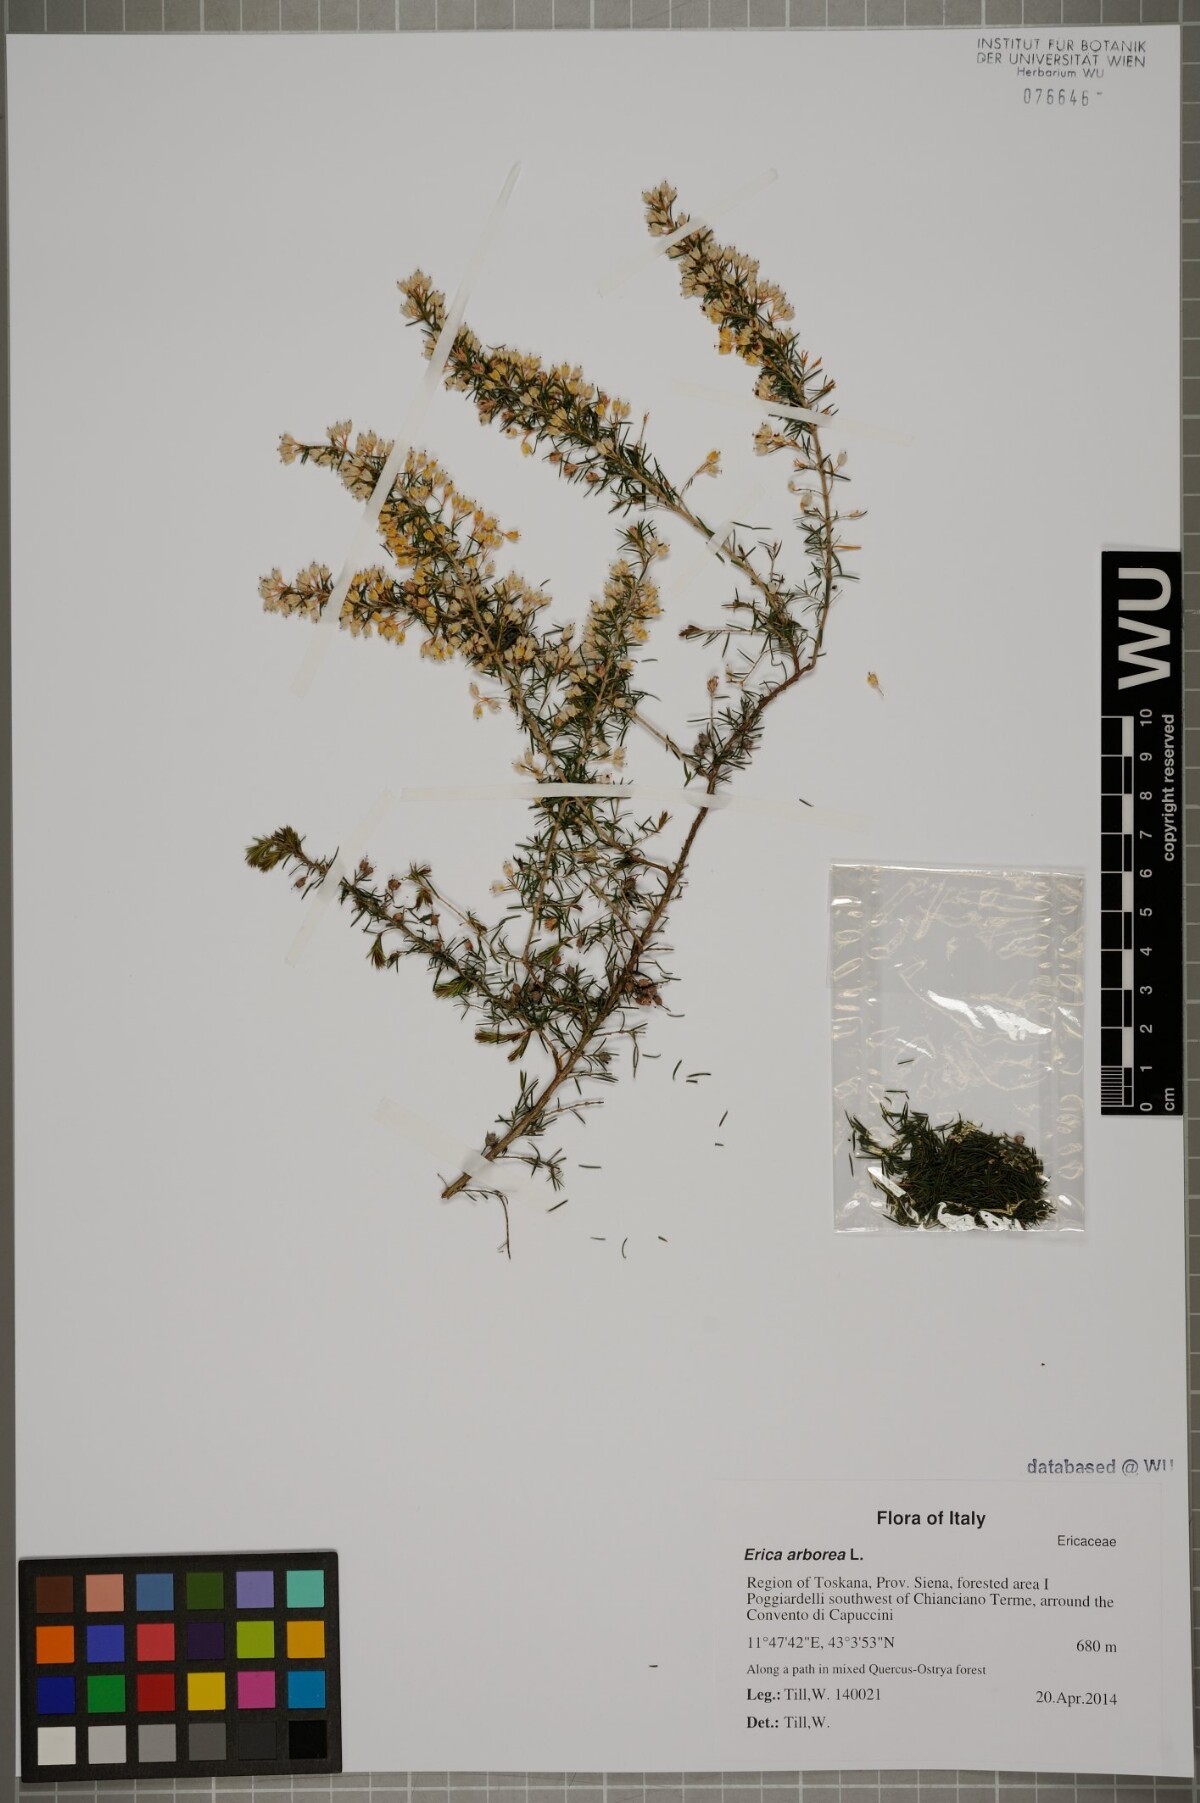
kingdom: Plantae
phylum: Tracheophyta
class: Magnoliopsida
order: Ericales
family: Ericaceae
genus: Erica
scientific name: Erica arborea
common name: Tree heath
